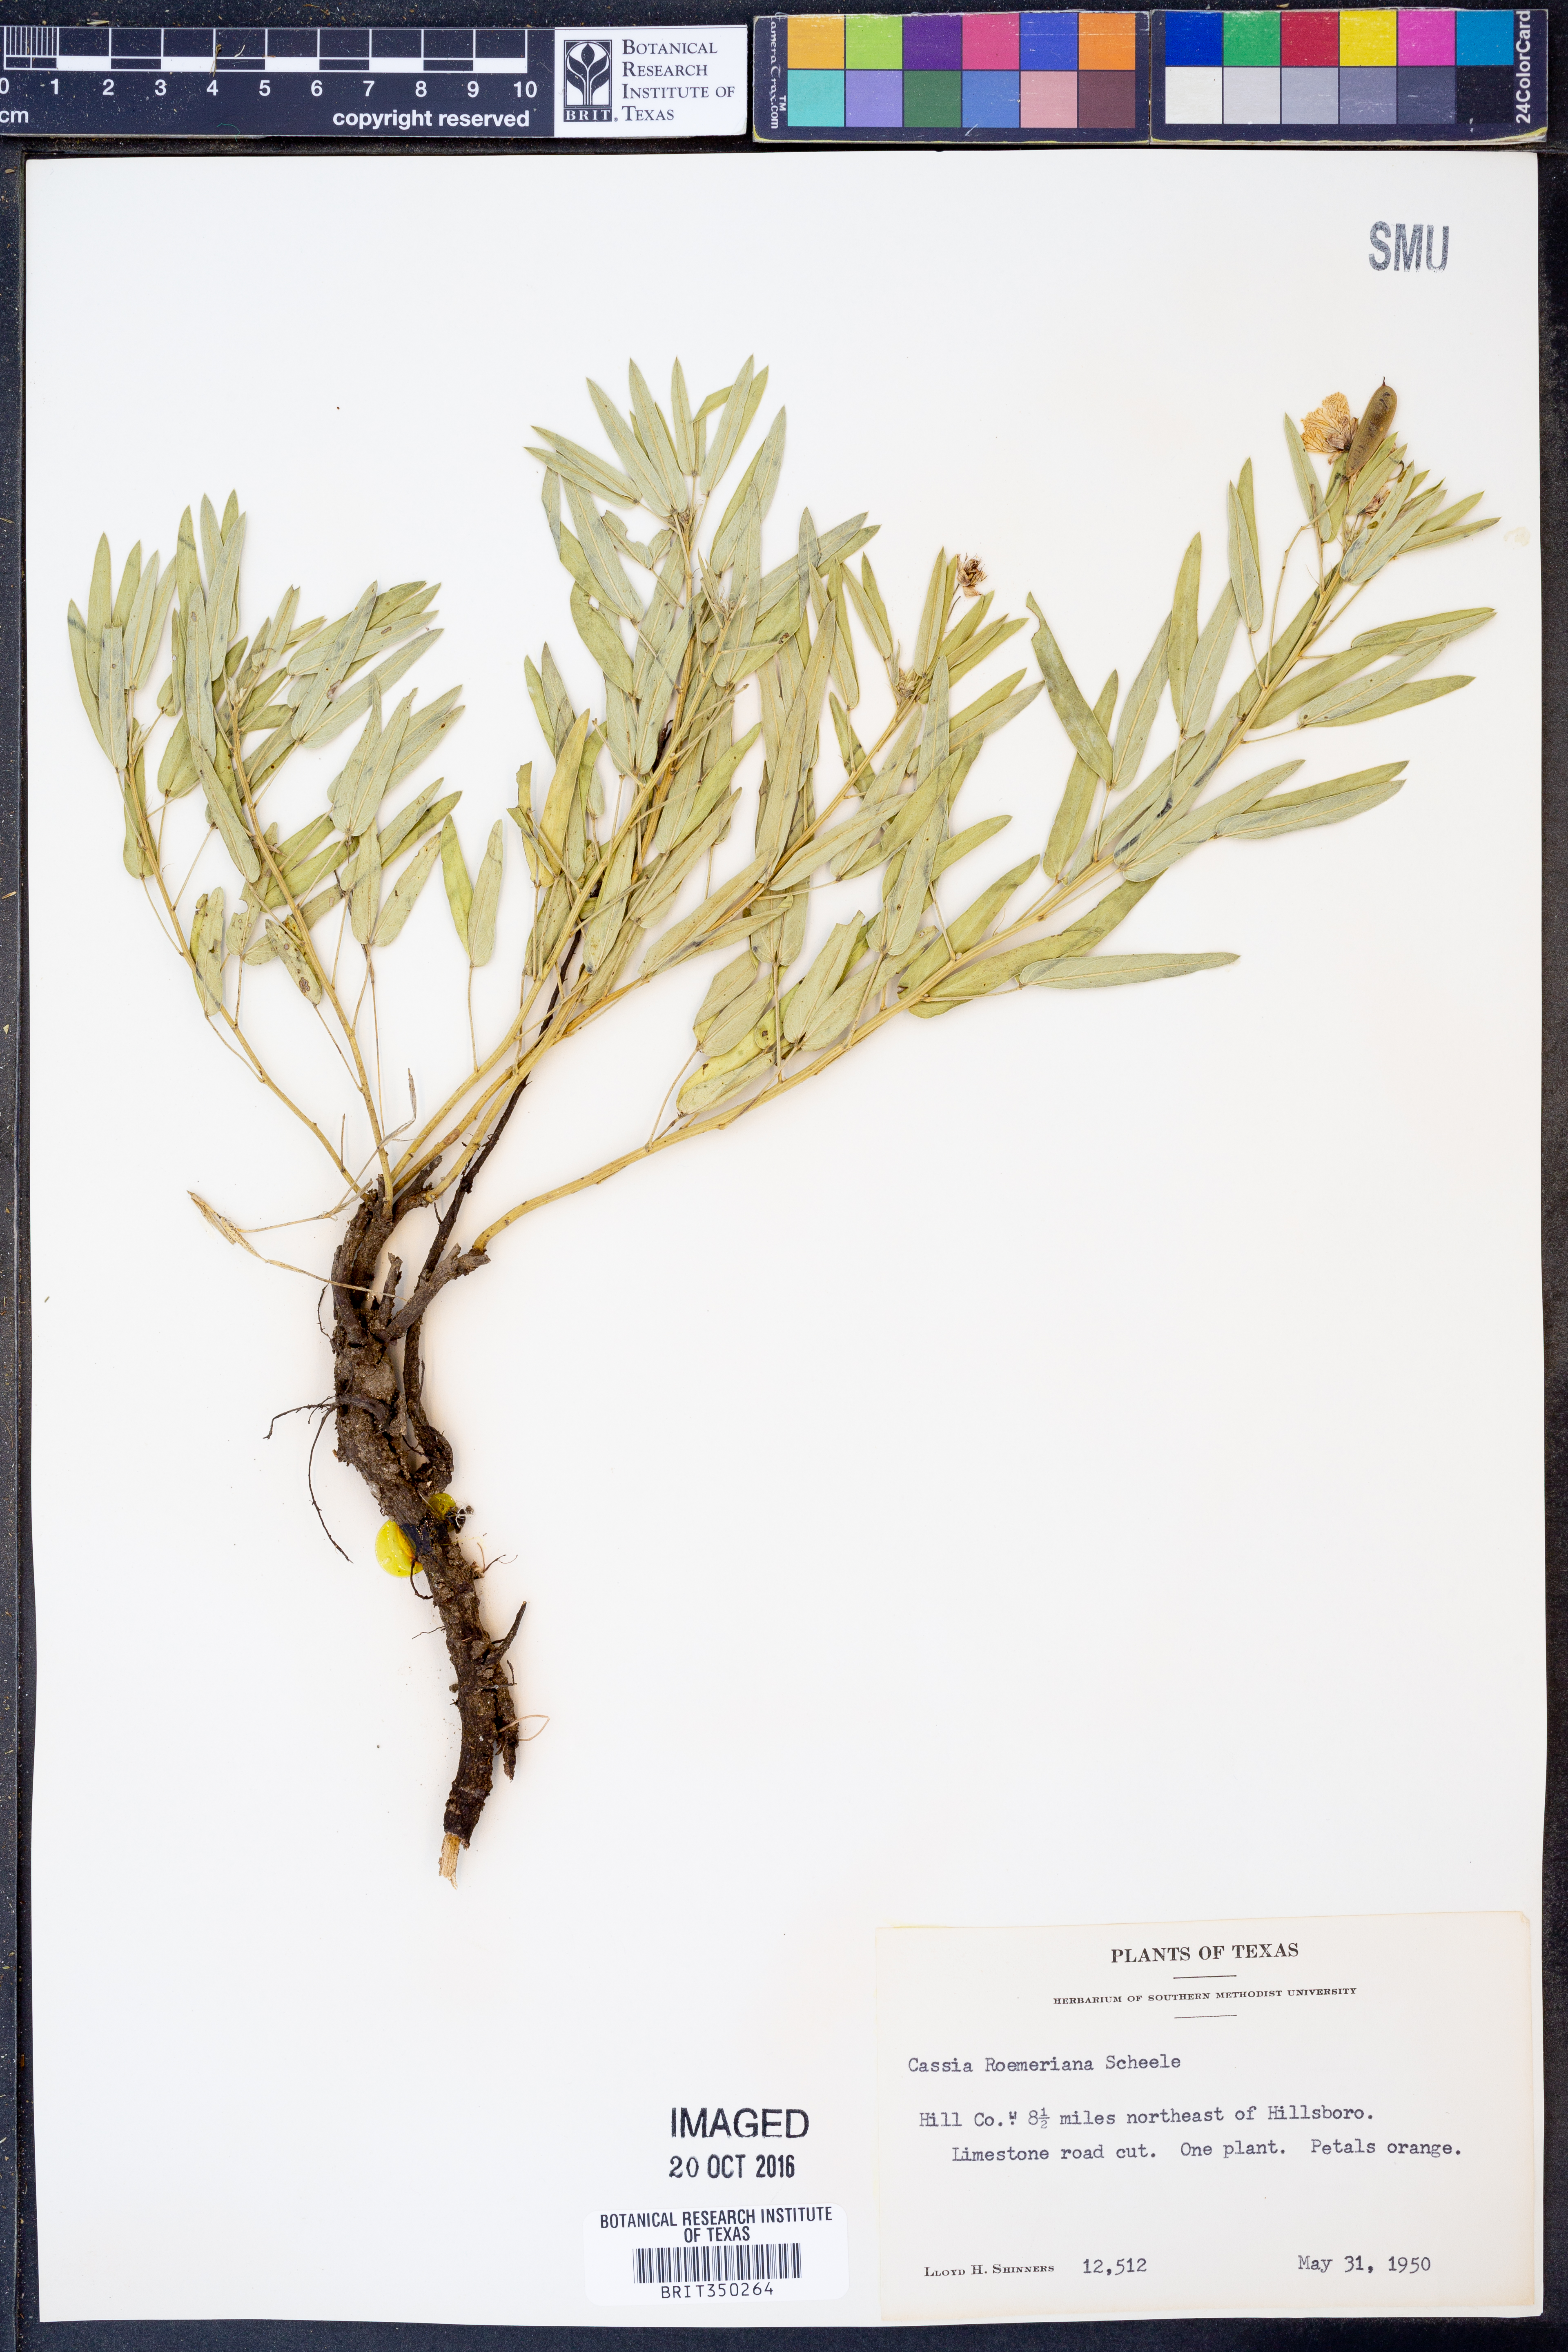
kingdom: Plantae
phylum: Tracheophyta
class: Magnoliopsida
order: Fabales
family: Fabaceae
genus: Senna
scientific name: Senna roemeriana
